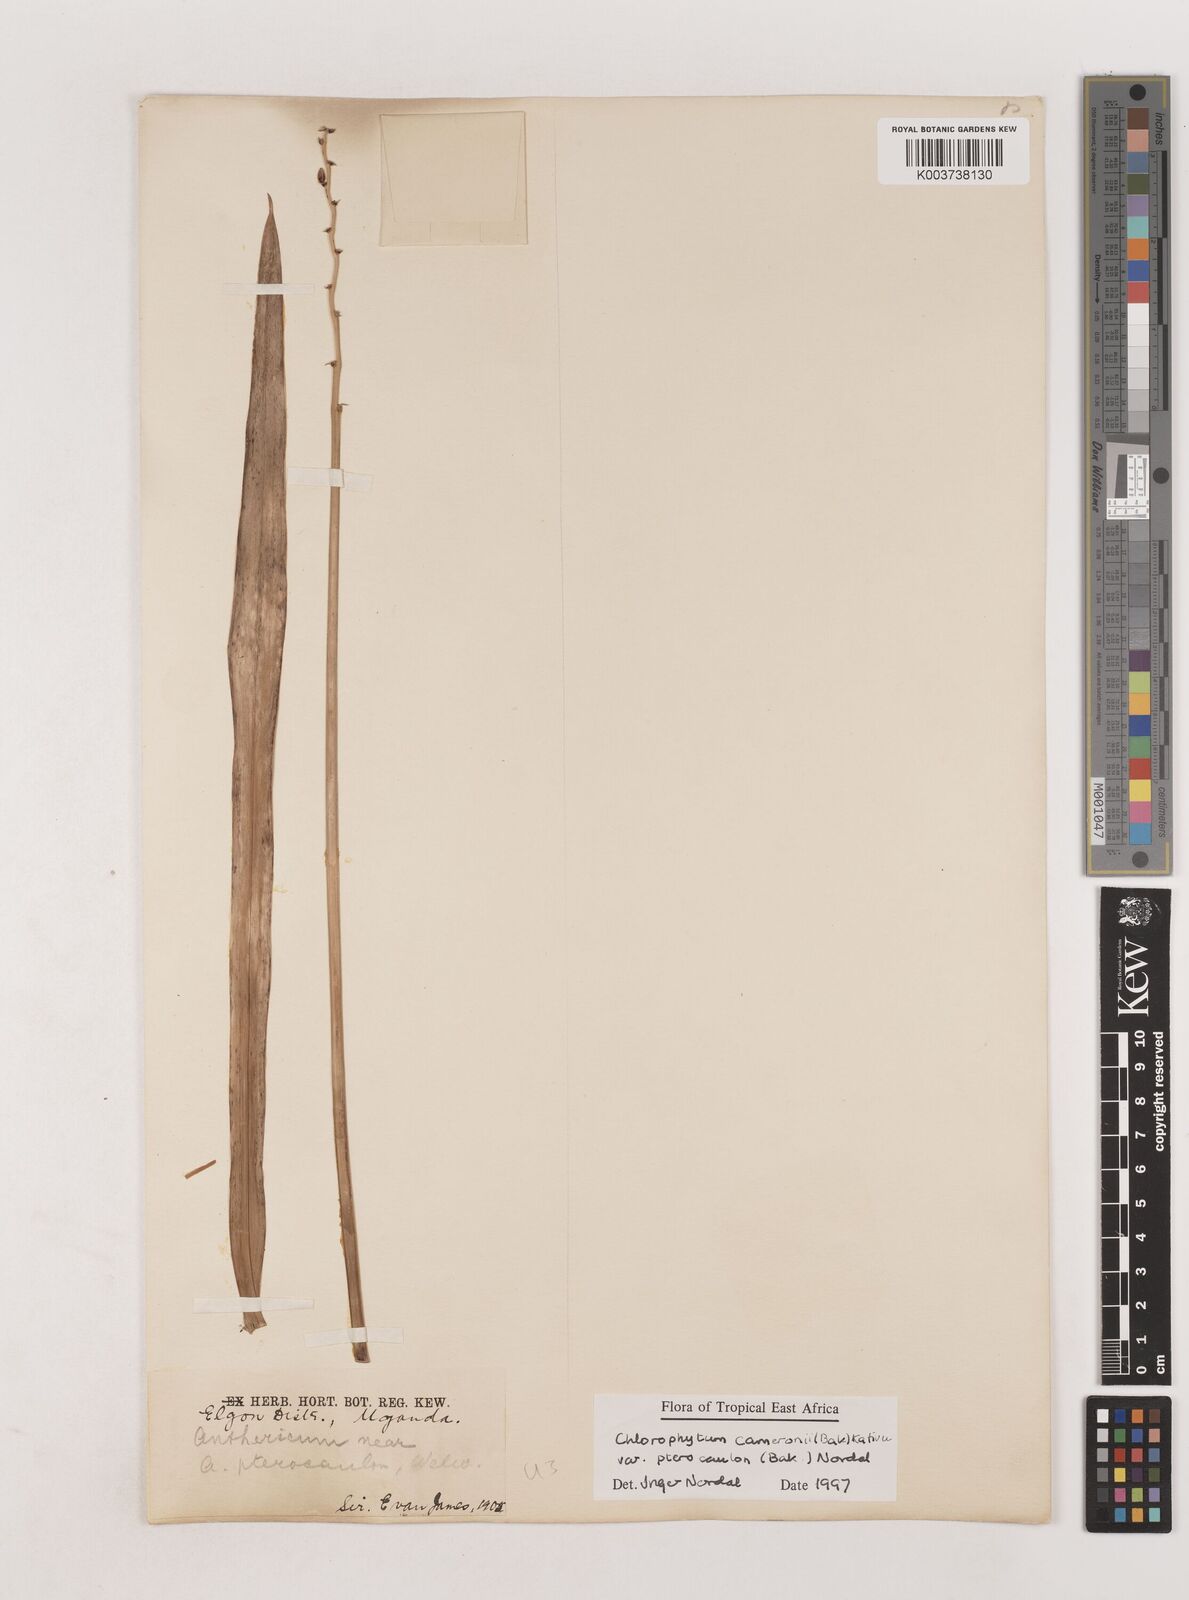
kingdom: Plantae
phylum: Tracheophyta
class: Liliopsida
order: Asparagales
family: Asparagaceae
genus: Chlorophytum
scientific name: Chlorophytum cameronii
